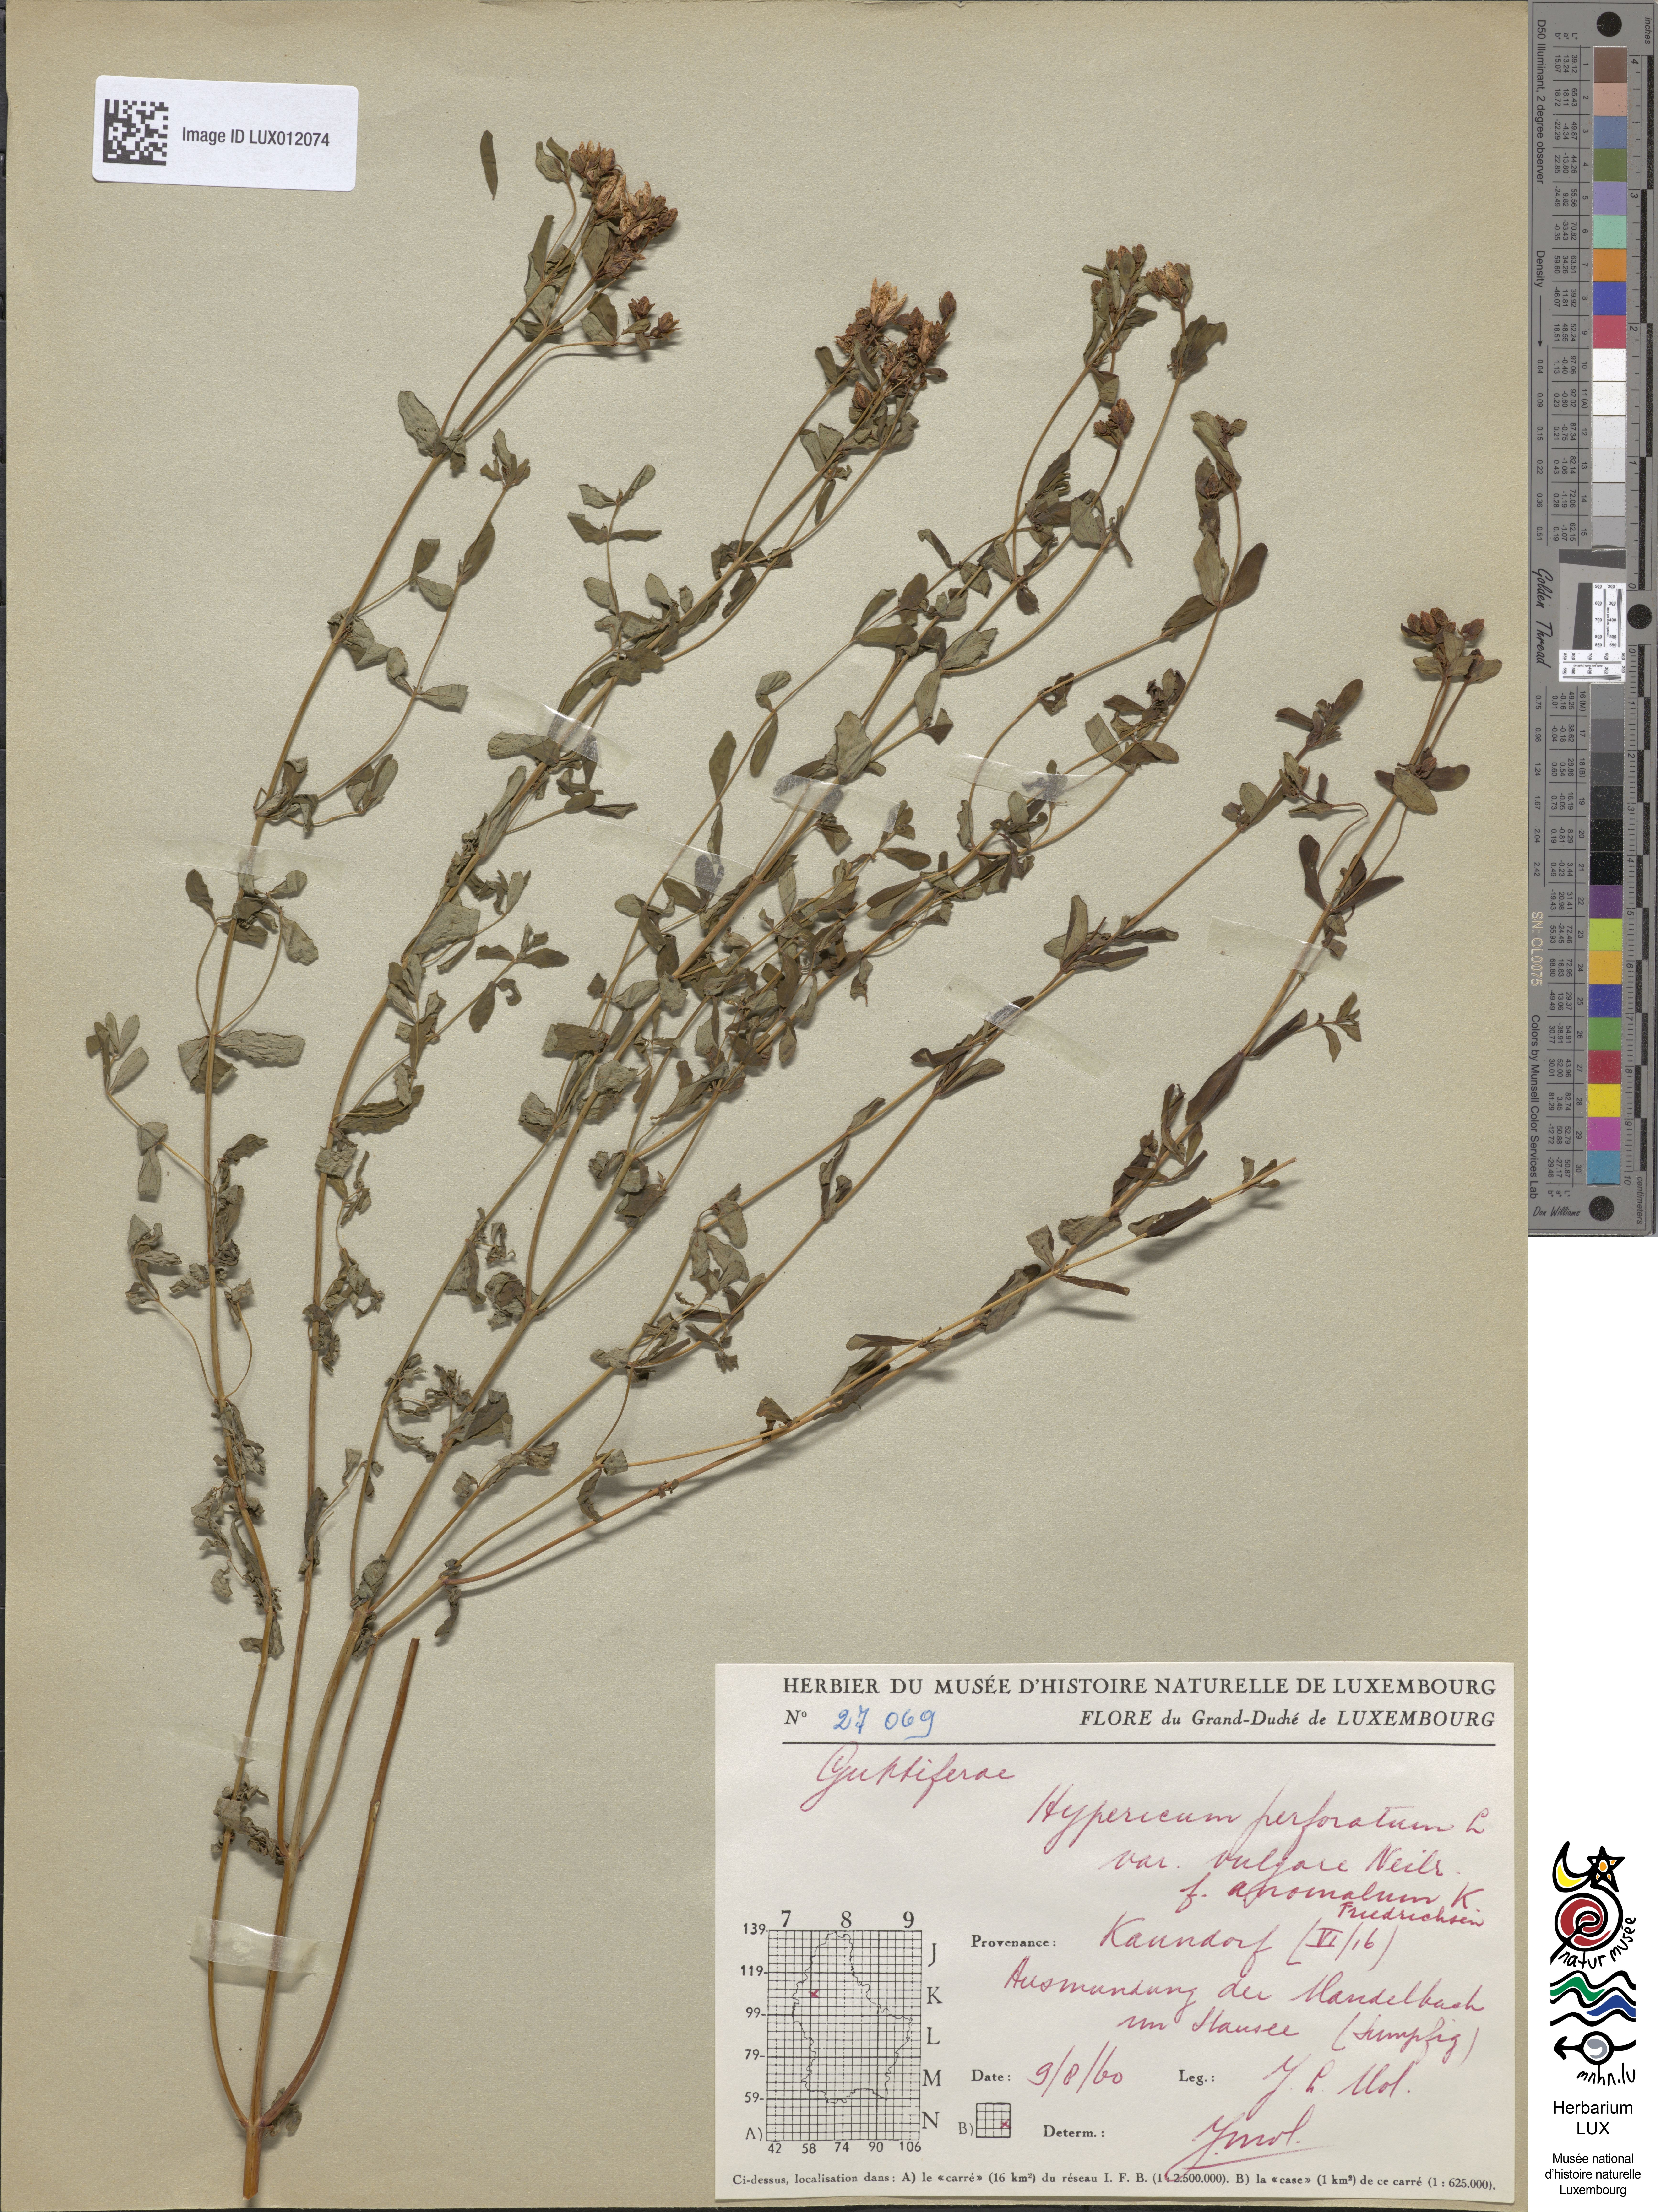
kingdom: Plantae
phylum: Tracheophyta
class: Magnoliopsida
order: Malpighiales
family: Hypericaceae
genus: Hypericum
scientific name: Hypericum perforatum
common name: Common st. johnswort
